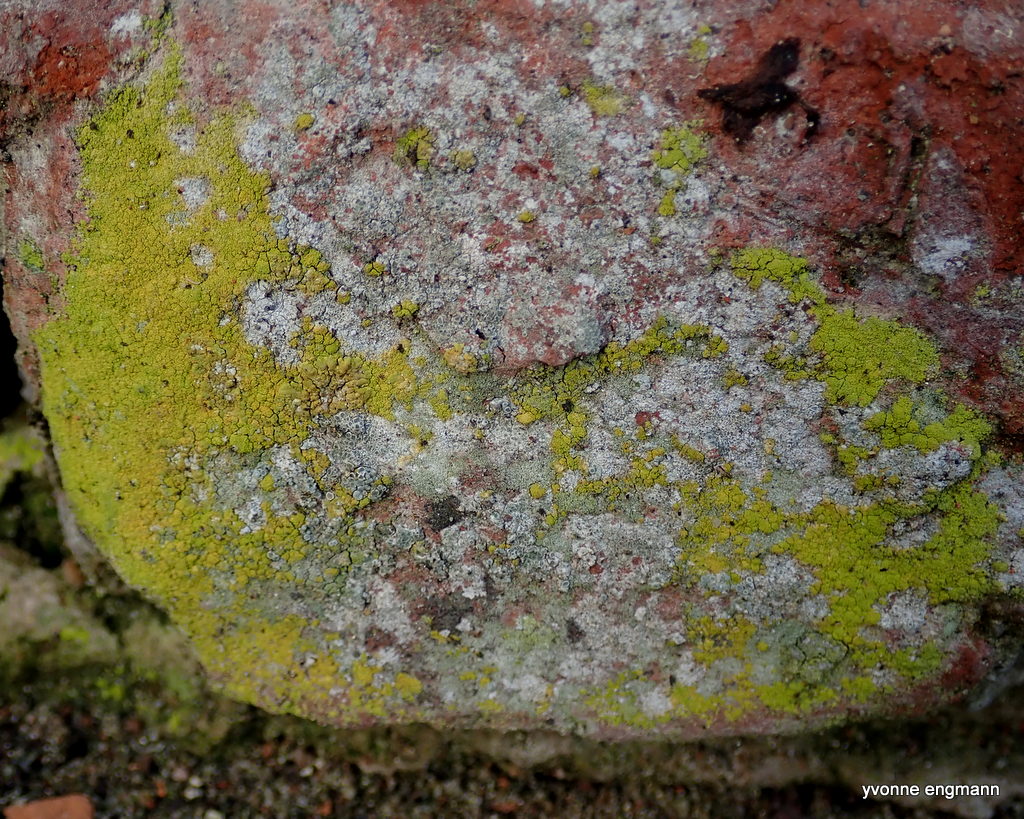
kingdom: Fungi
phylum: Ascomycota
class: Candelariomycetes
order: Candelariales
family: Candelariaceae
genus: Candelariella
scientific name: Candelariella vitellina
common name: almindelig æggeblommelav
